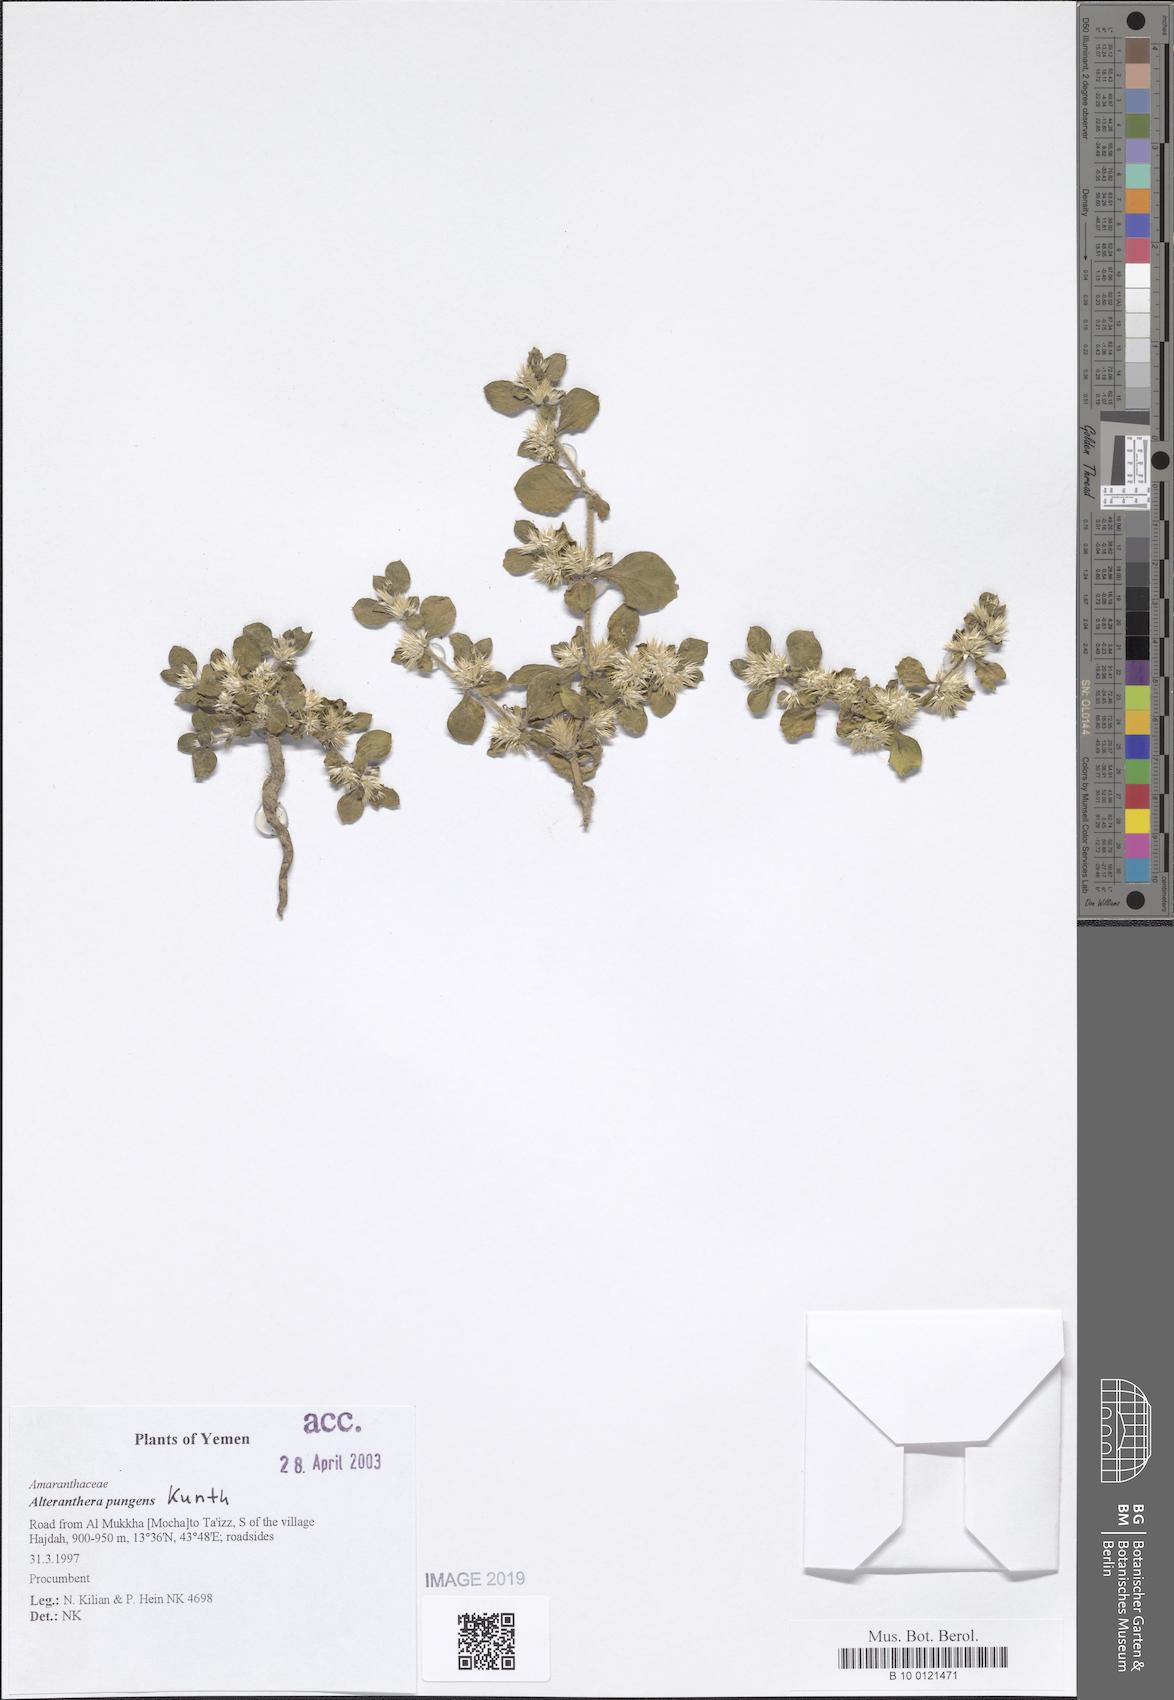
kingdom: Plantae
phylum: Tracheophyta
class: Magnoliopsida
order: Caryophyllales
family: Amaranthaceae
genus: Alternanthera
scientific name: Alternanthera pungens
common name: Khakiweed
